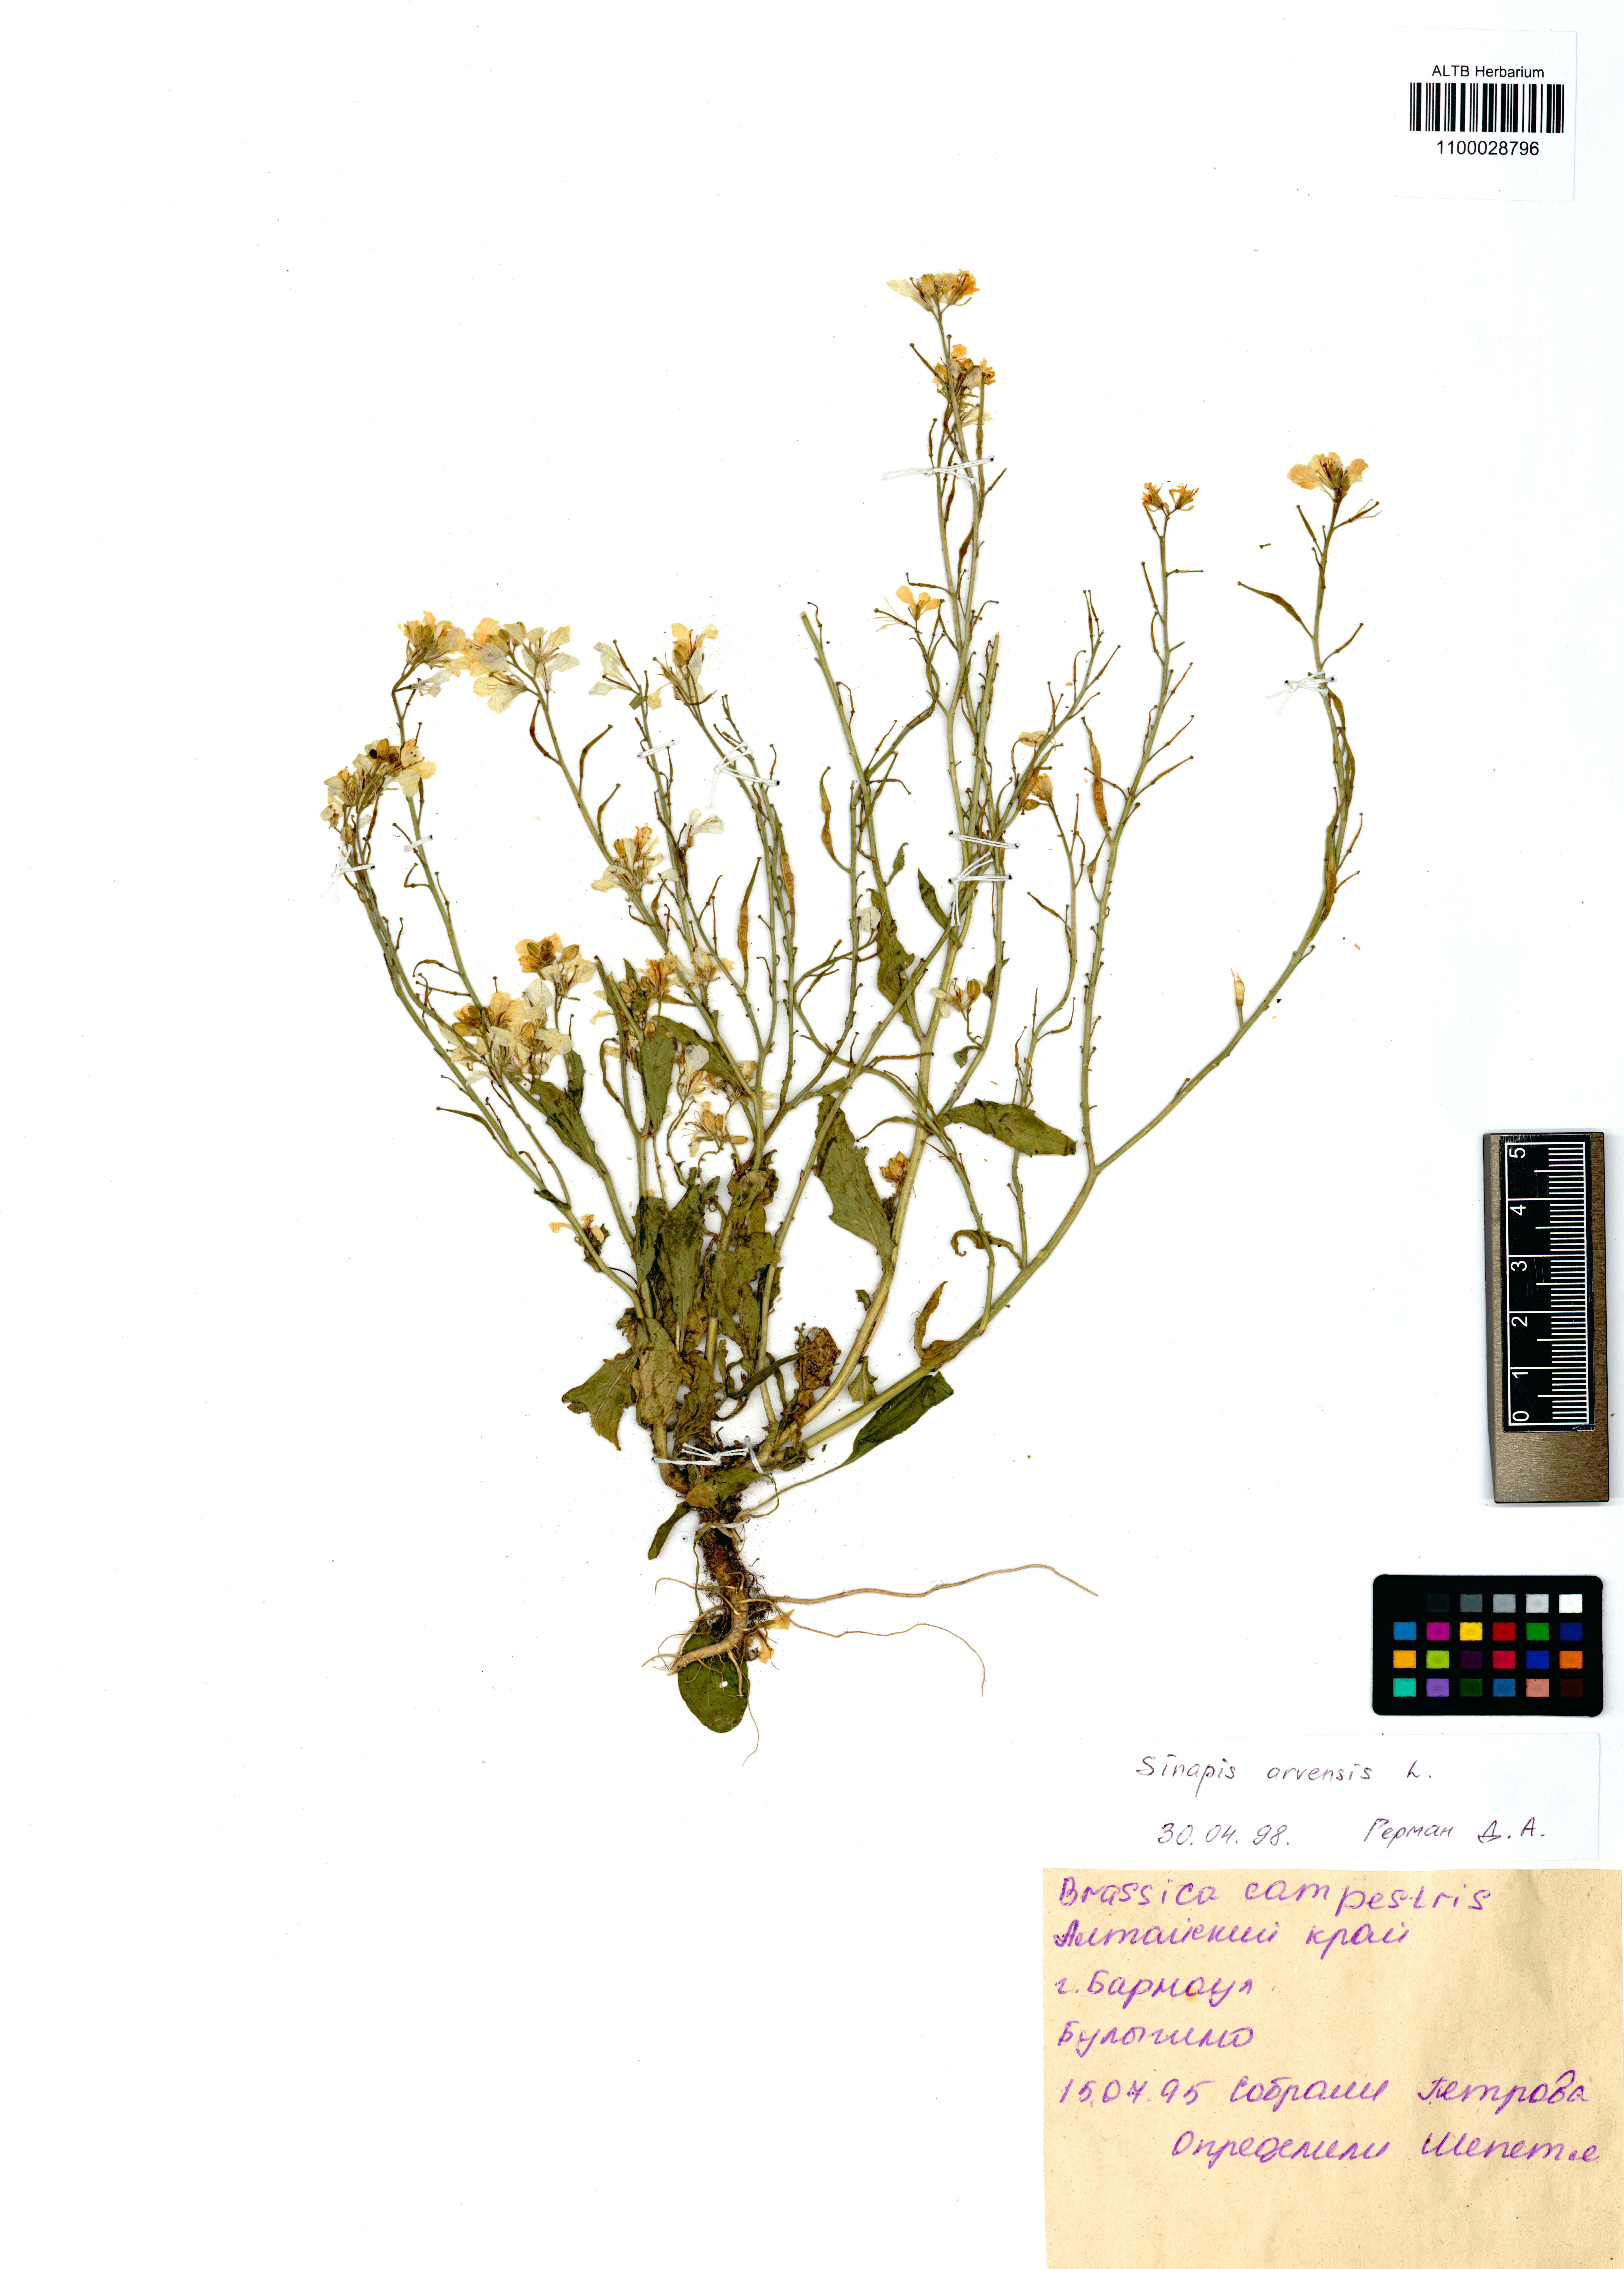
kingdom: Plantae
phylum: Tracheophyta
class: Magnoliopsida
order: Brassicales
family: Brassicaceae
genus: Sinapis
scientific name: Sinapis arvensis
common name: Charlock
